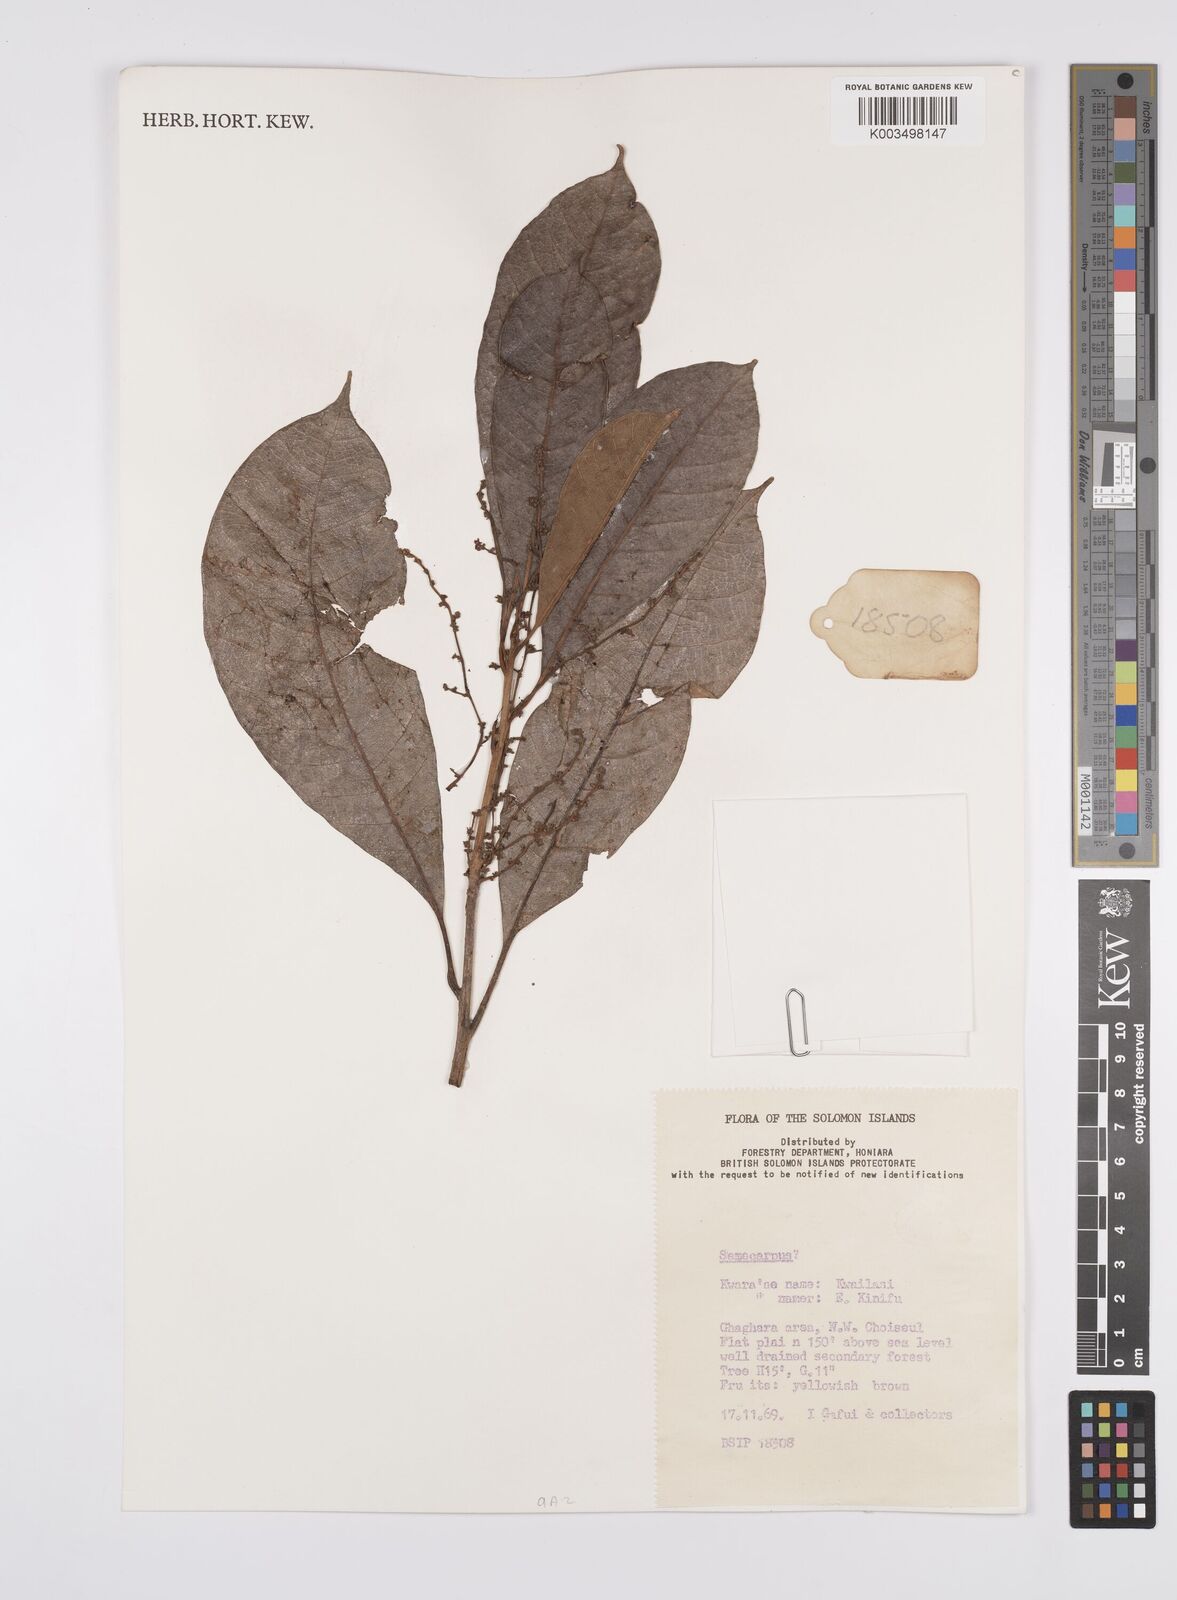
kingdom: Plantae
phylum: Tracheophyta
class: Magnoliopsida
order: Sapindales
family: Anacardiaceae
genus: Semecarpus
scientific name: Semecarpus
